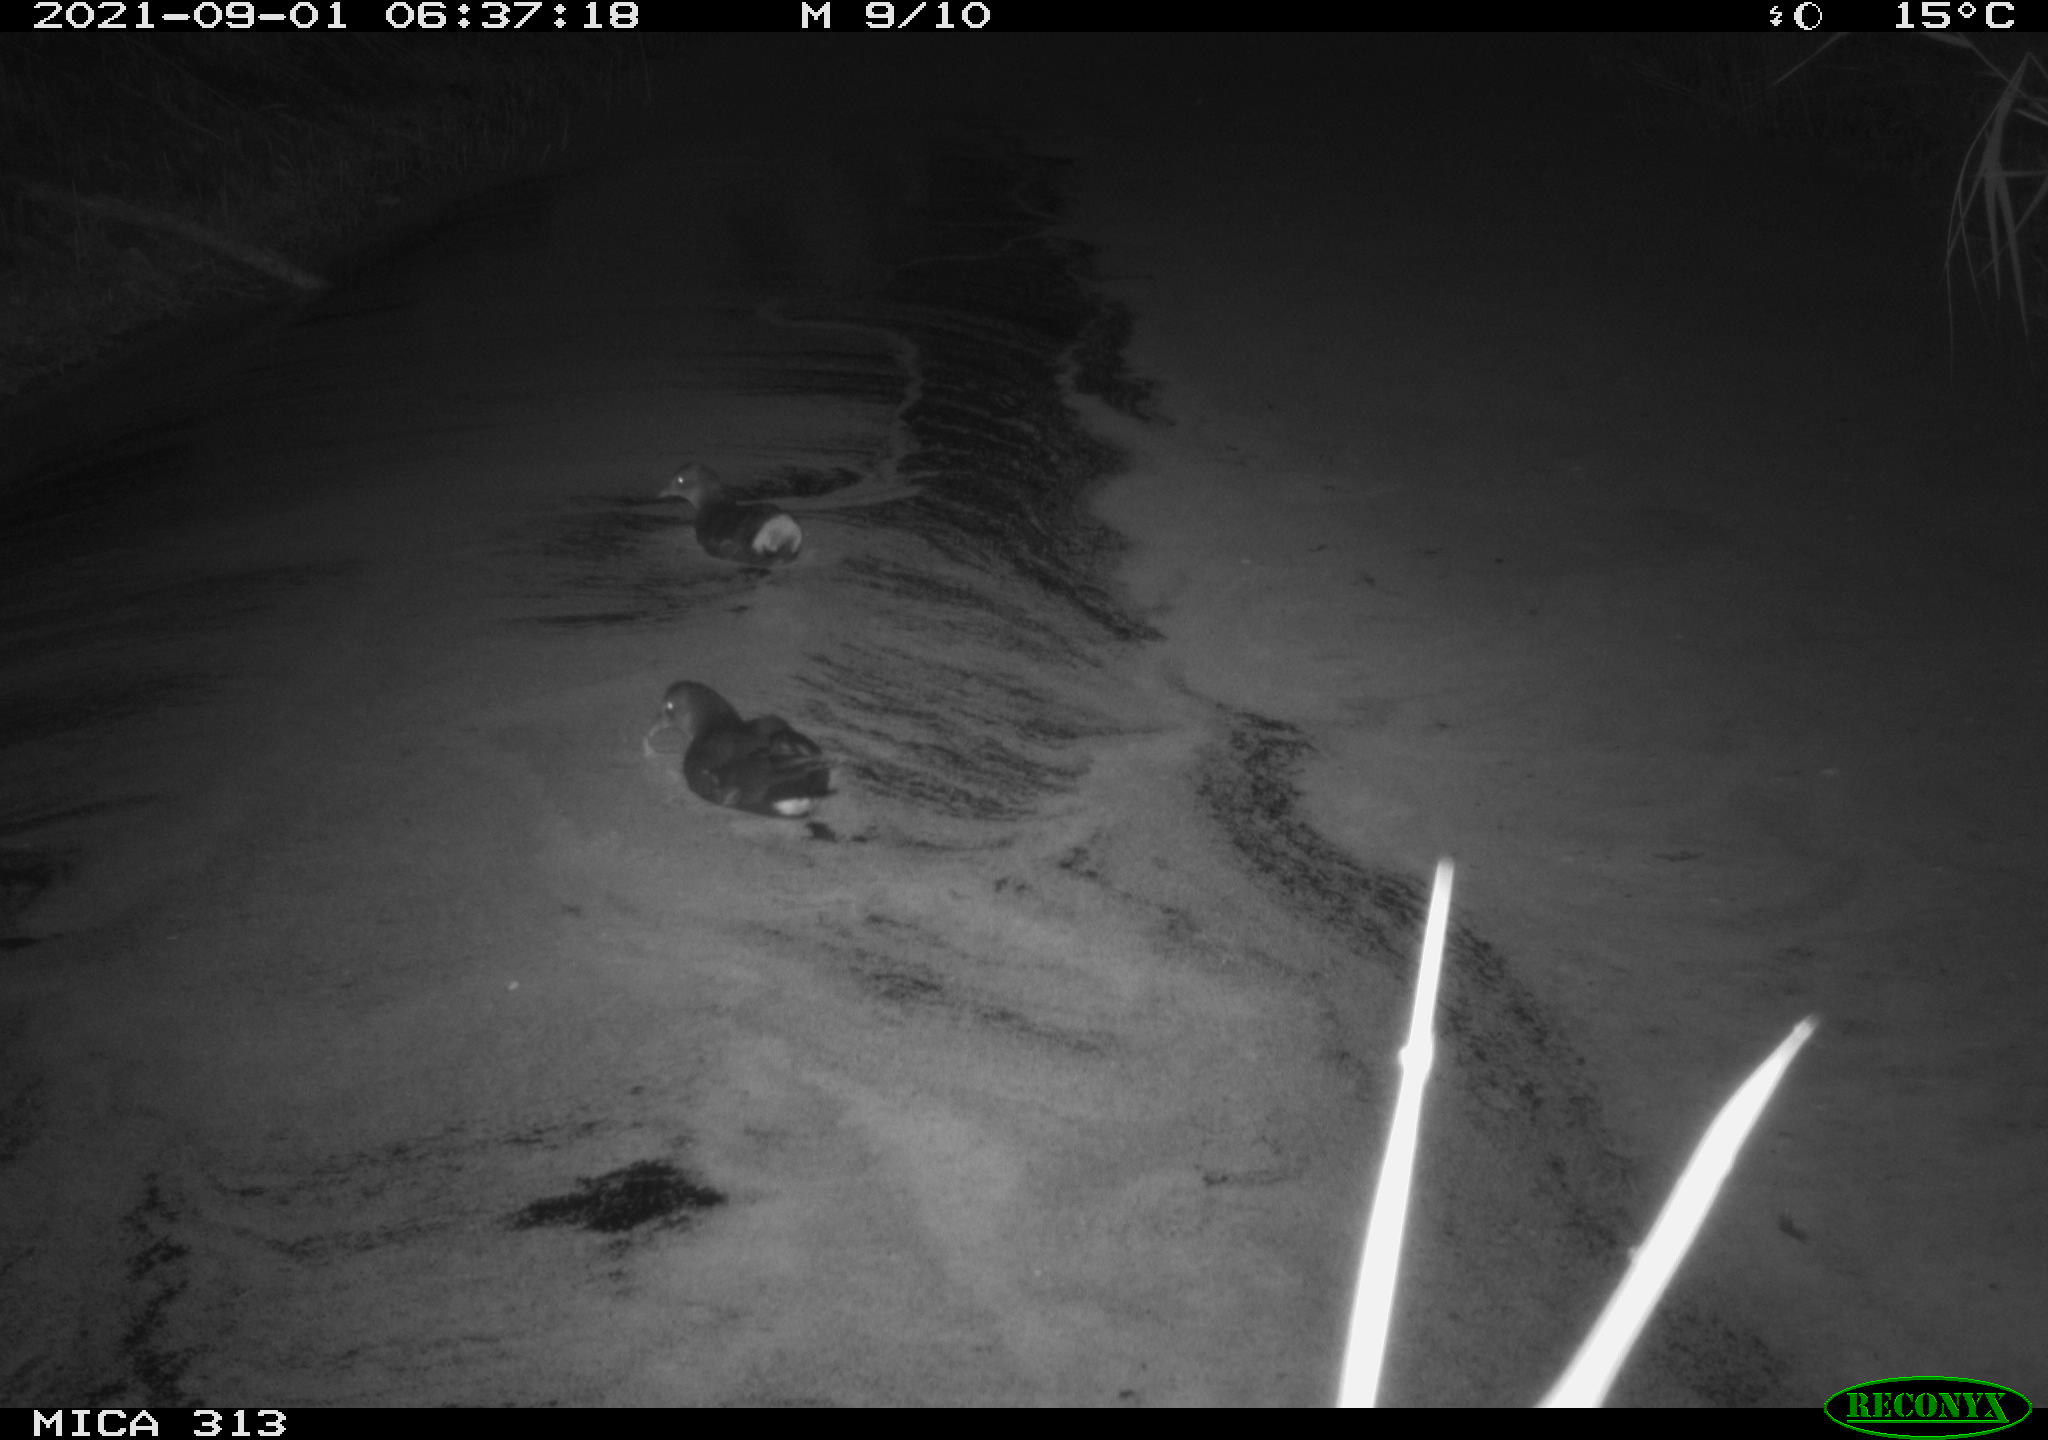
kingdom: Animalia
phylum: Chordata
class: Aves
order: Gruiformes
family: Rallidae
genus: Fulica
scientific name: Fulica atra
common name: Eurasian coot
